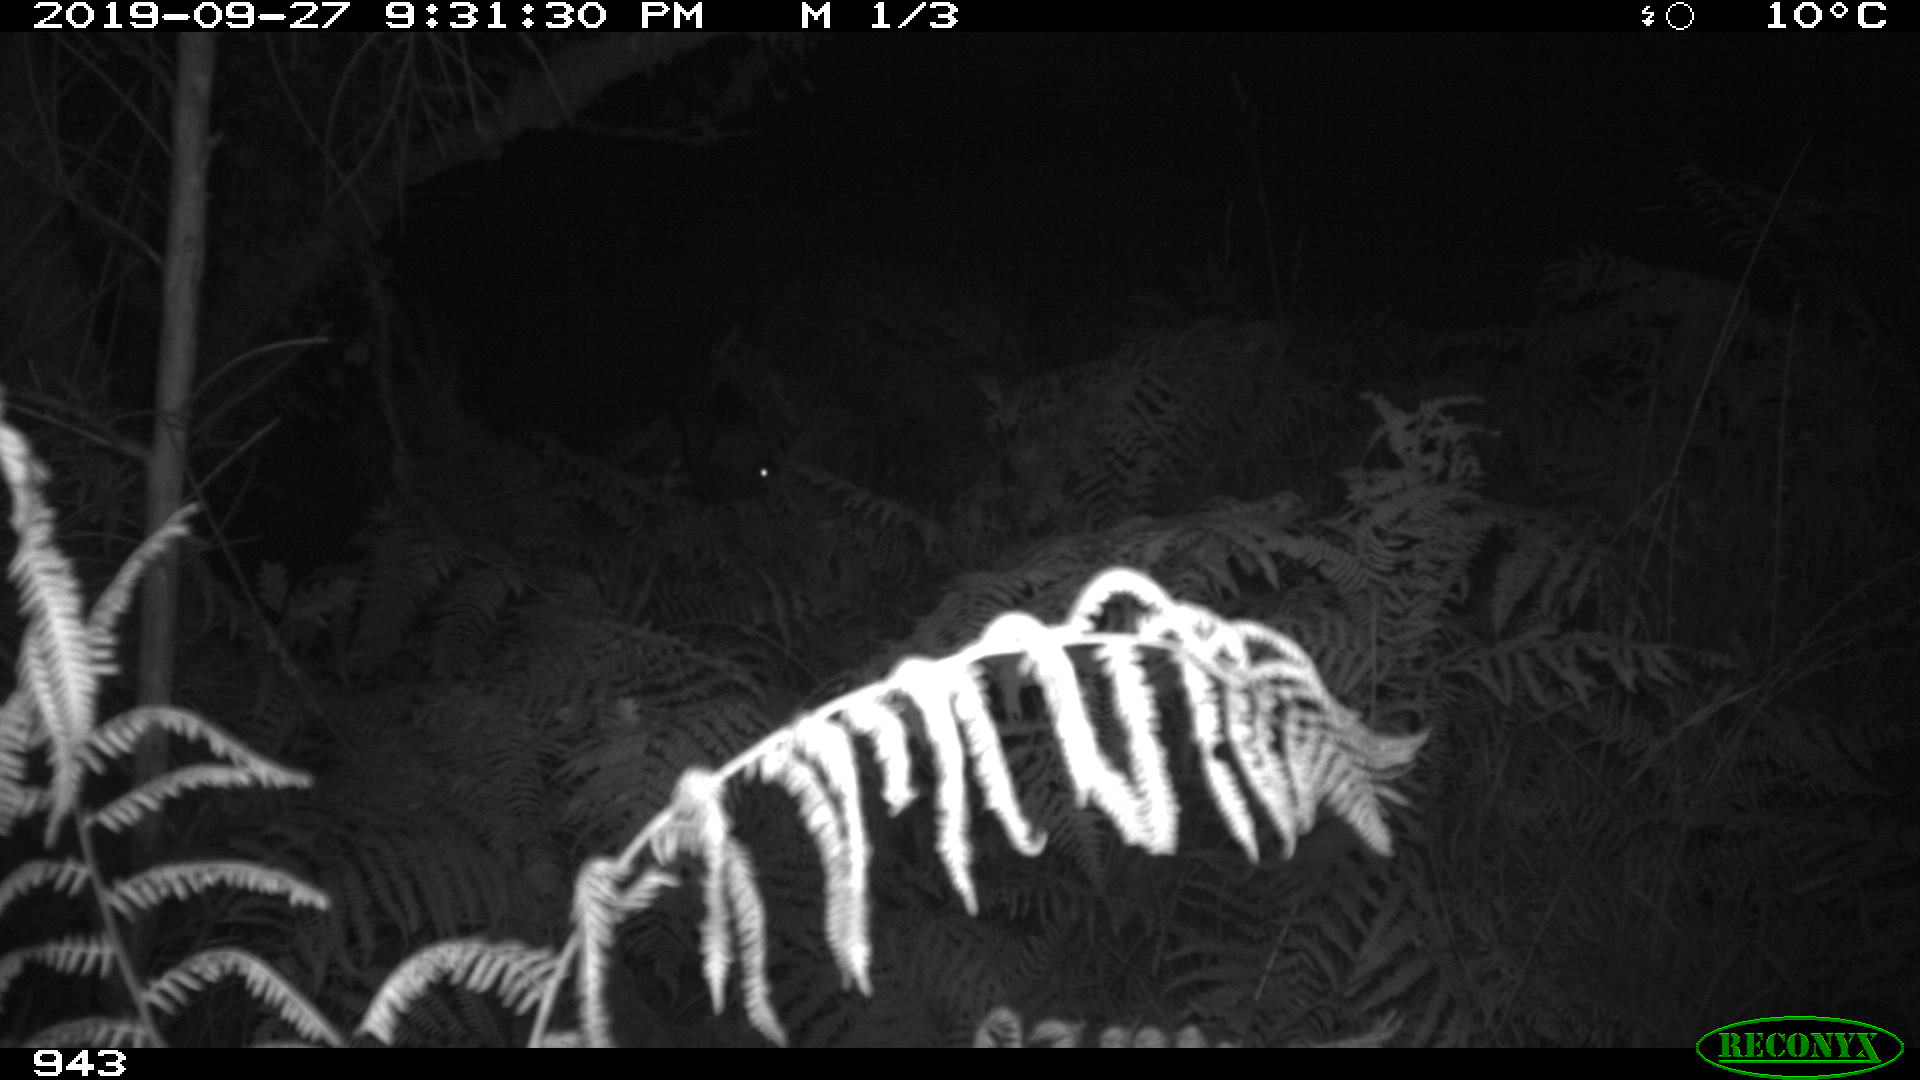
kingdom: Animalia
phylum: Chordata
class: Mammalia
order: Artiodactyla
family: Suidae
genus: Sus
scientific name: Sus scrofa
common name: Wild boar
